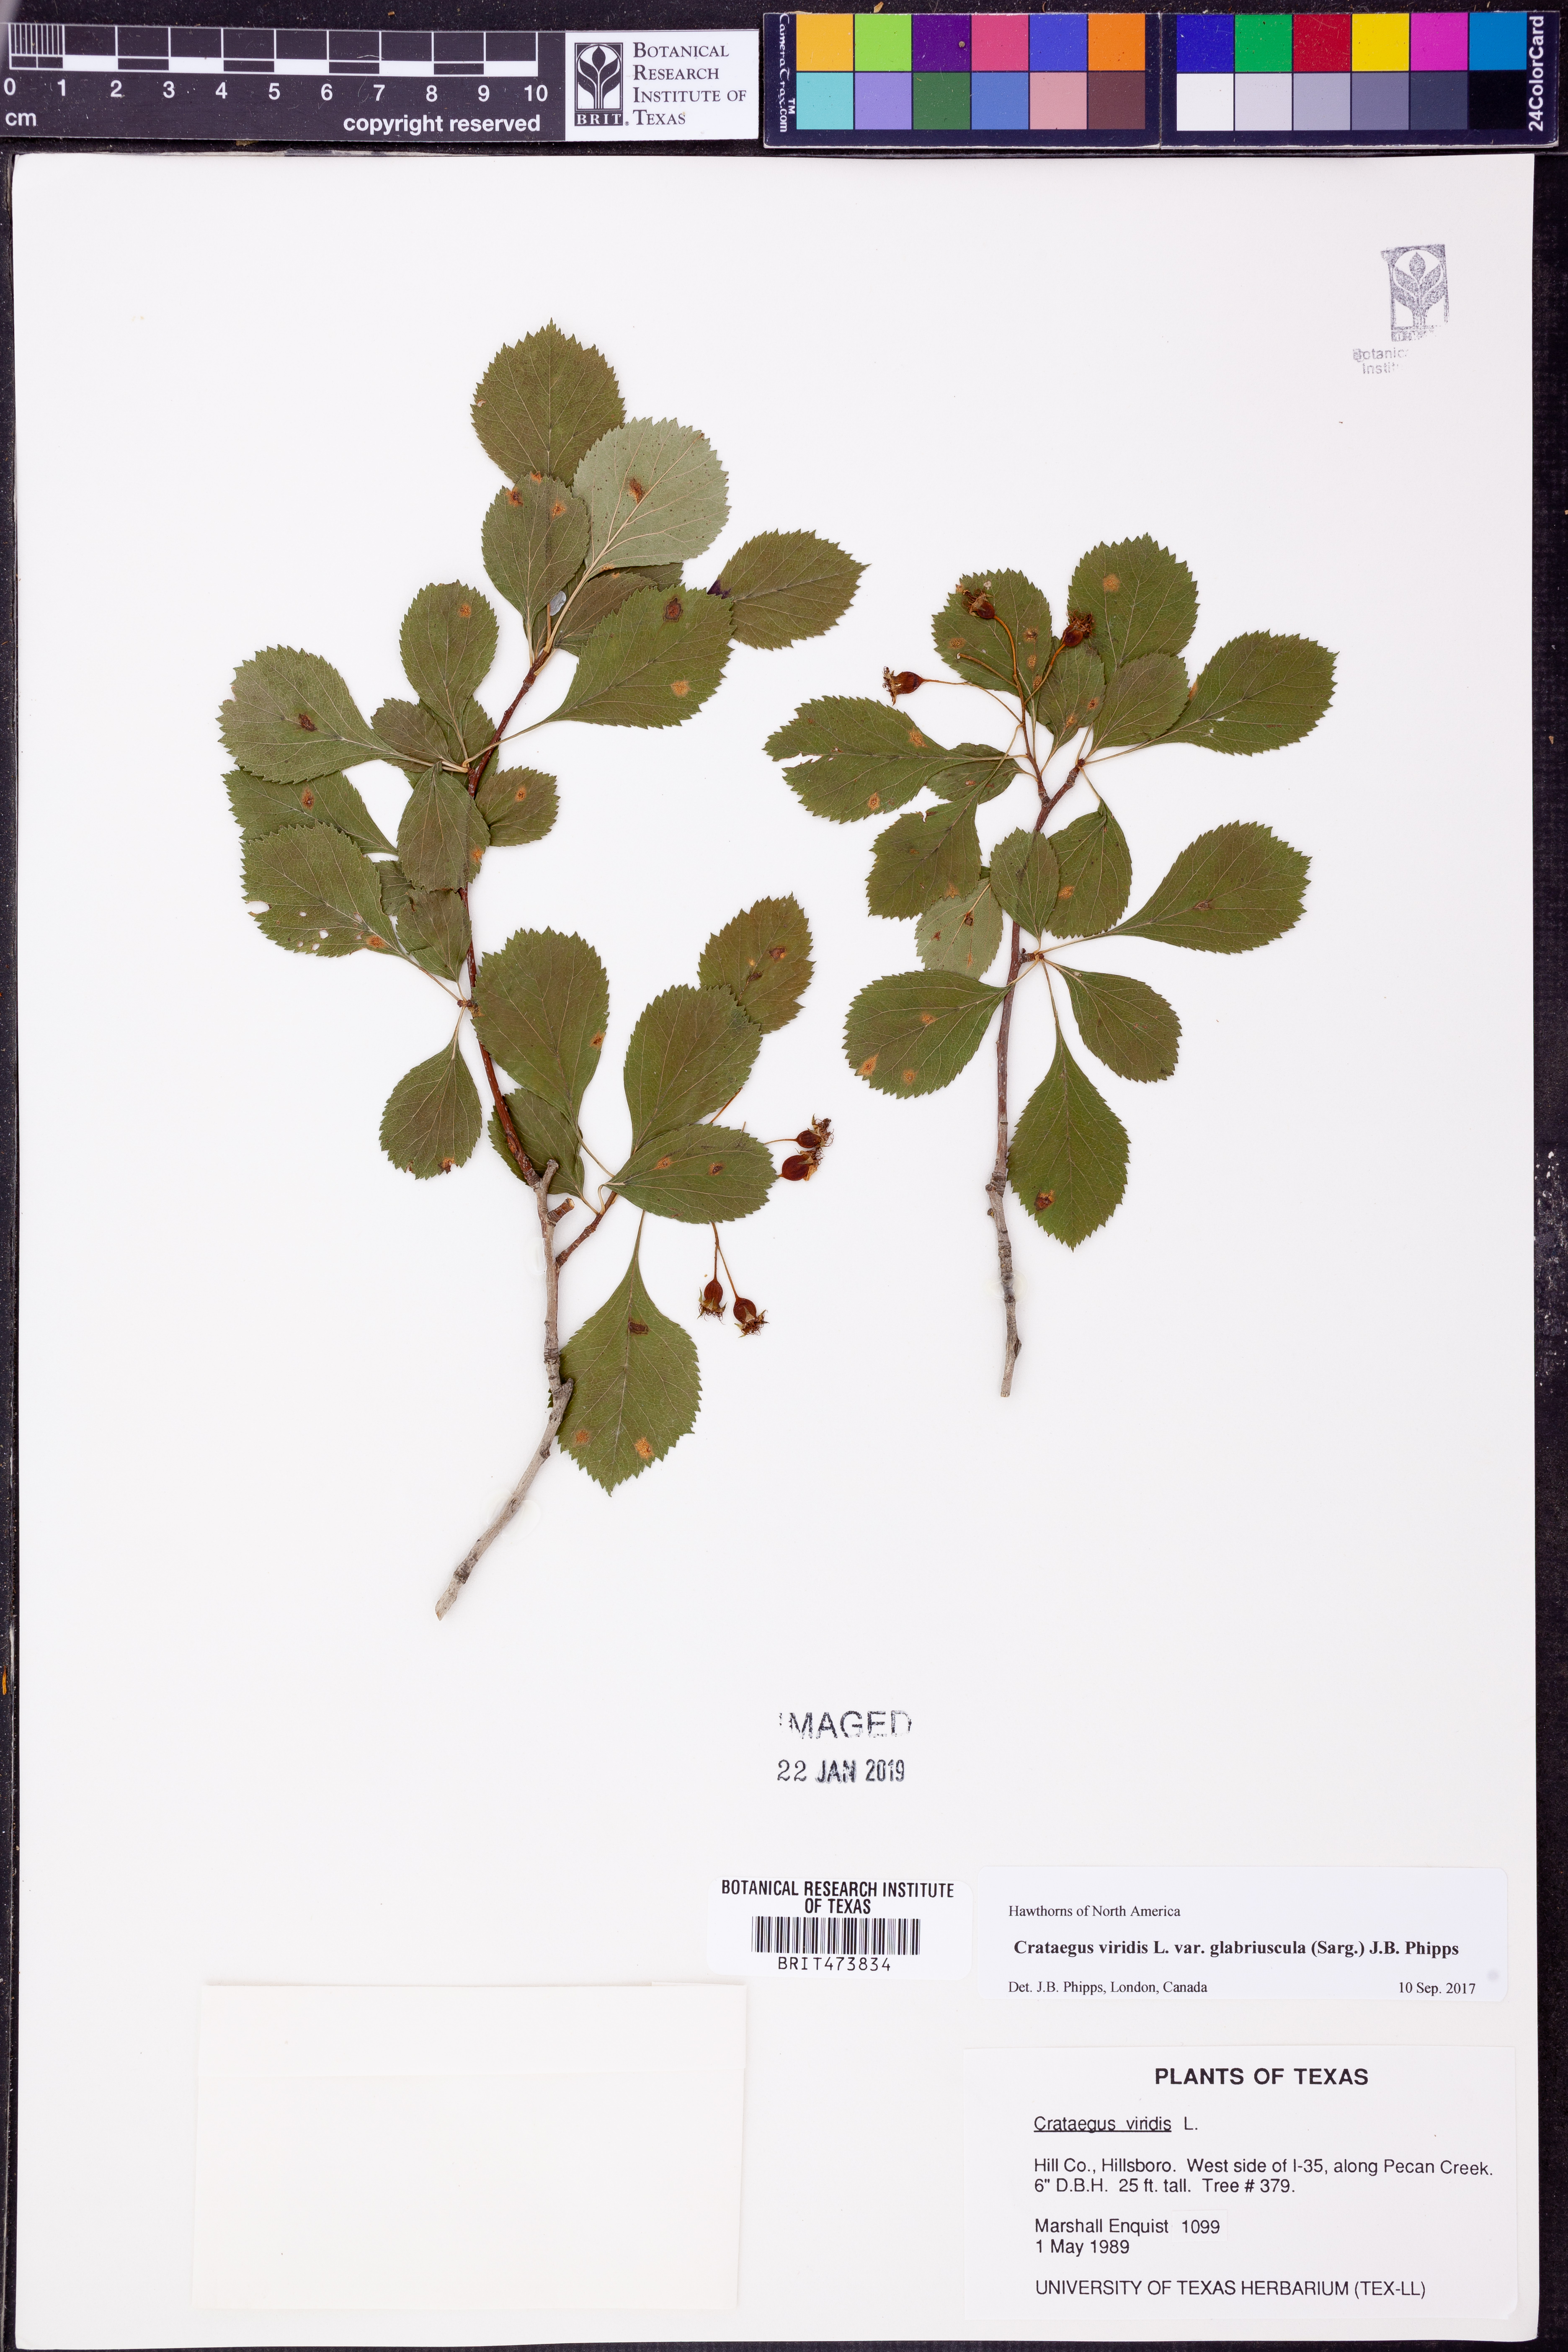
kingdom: Plantae
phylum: Tracheophyta
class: Magnoliopsida
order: Rosales
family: Rosaceae
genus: Crataegus
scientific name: Crataegus viridis
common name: Southernthorn
